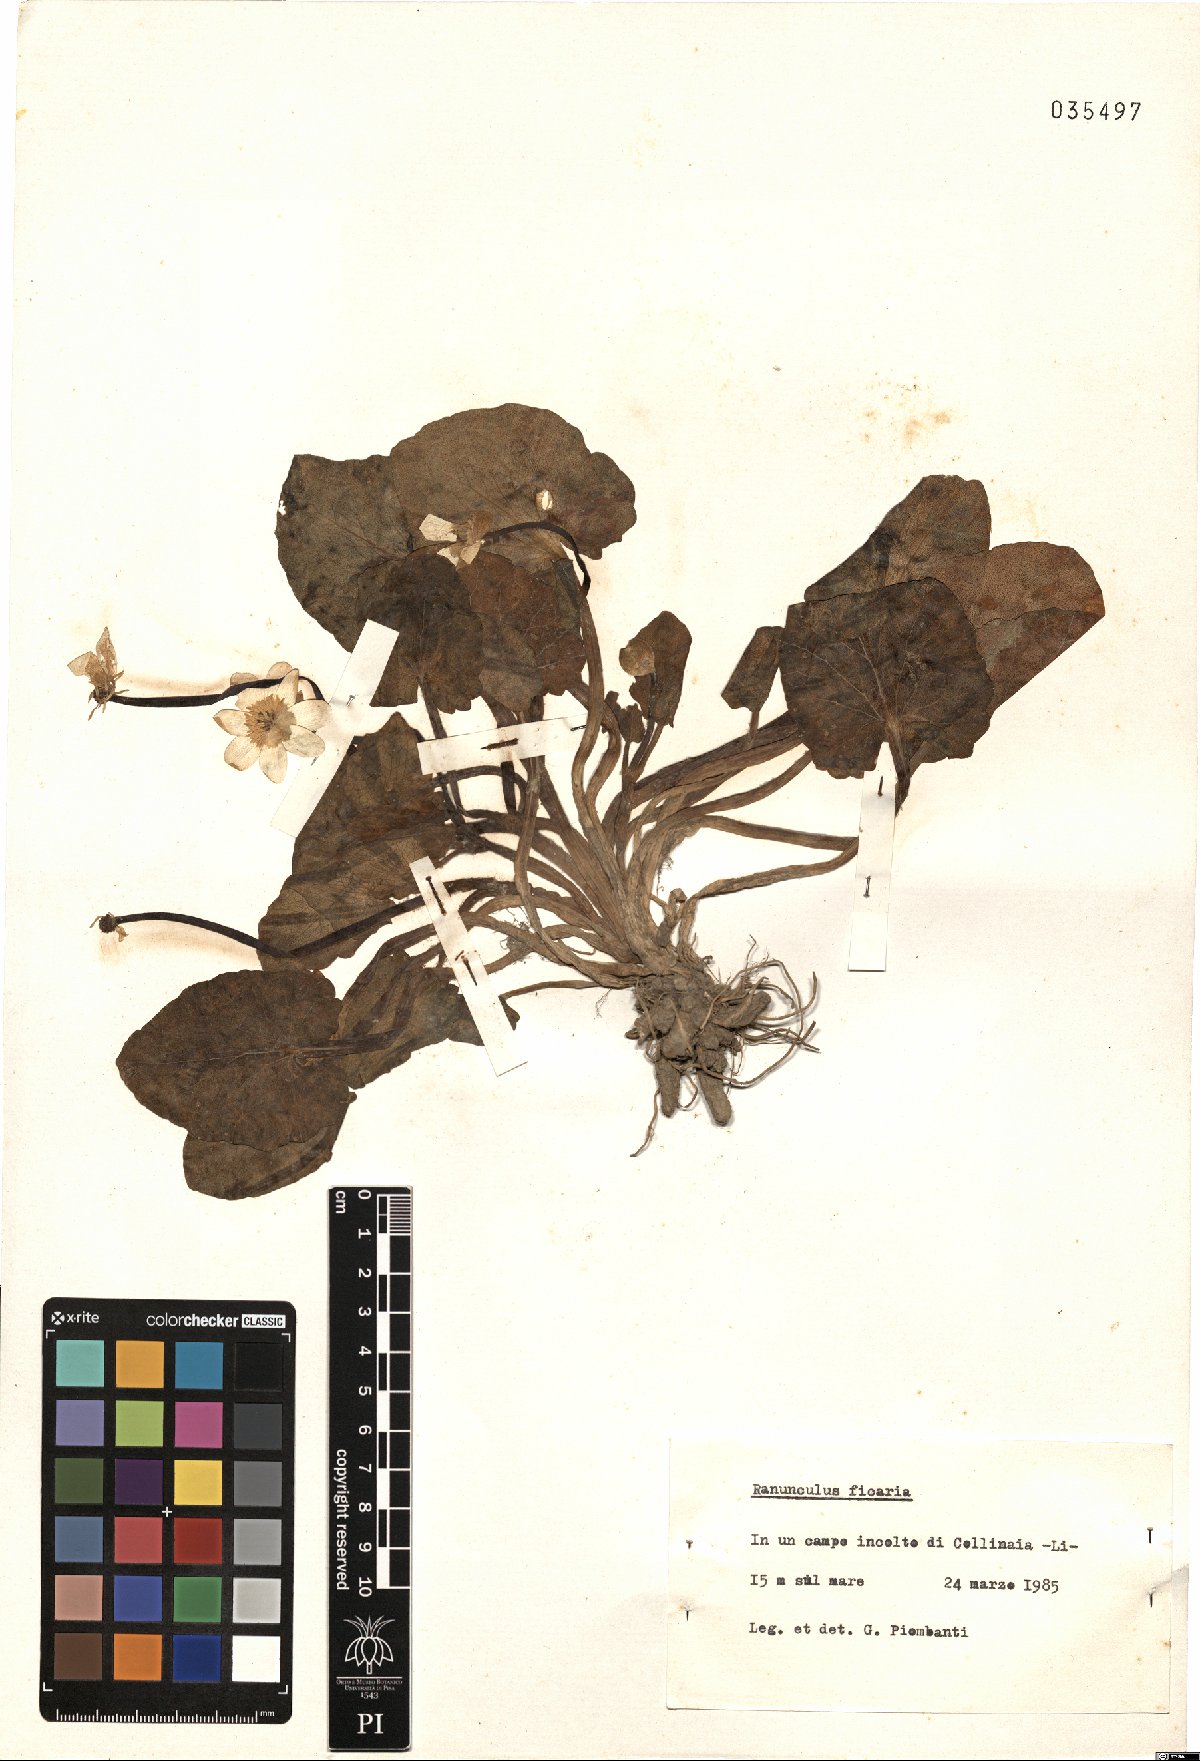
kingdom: Plantae
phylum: Tracheophyta
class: Magnoliopsida
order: Ranunculales
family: Ranunculaceae
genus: Ficaria
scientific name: Ficaria verna
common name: Lesser celandine
